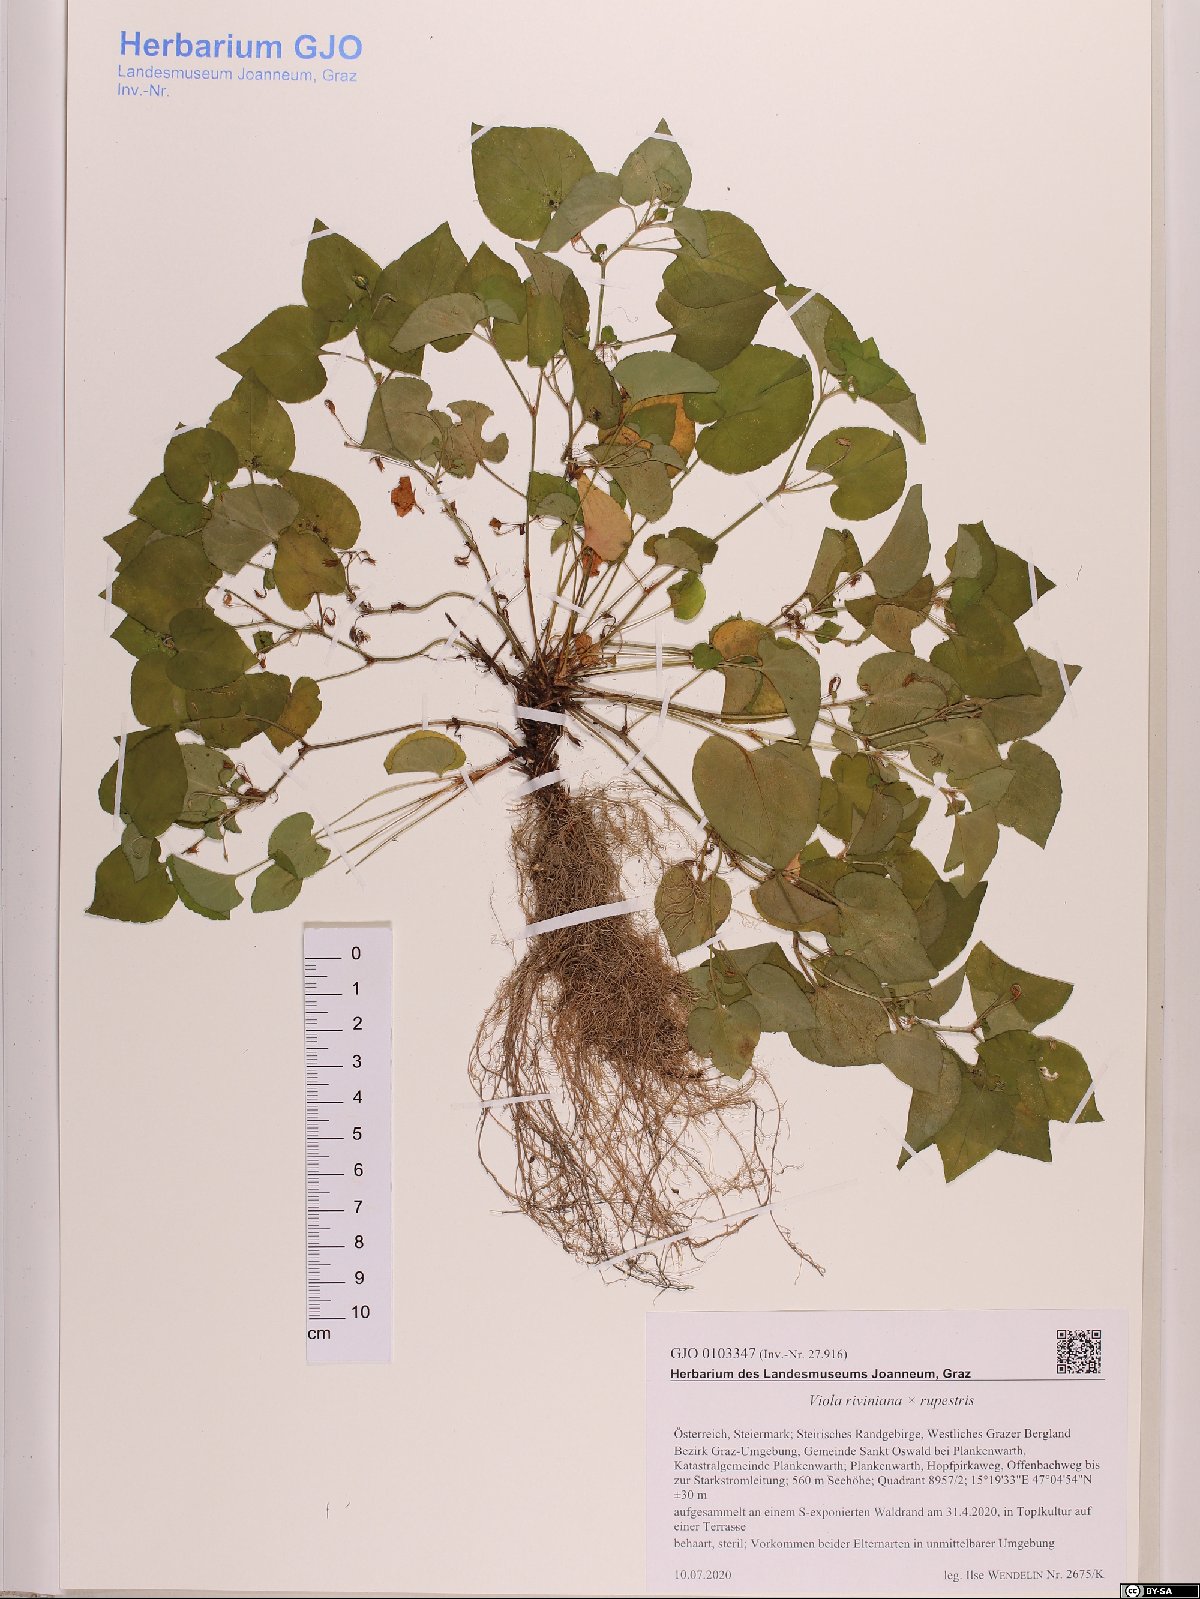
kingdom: Plantae
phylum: Tracheophyta
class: Magnoliopsida
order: Malpighiales
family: Violaceae
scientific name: Violaceae
